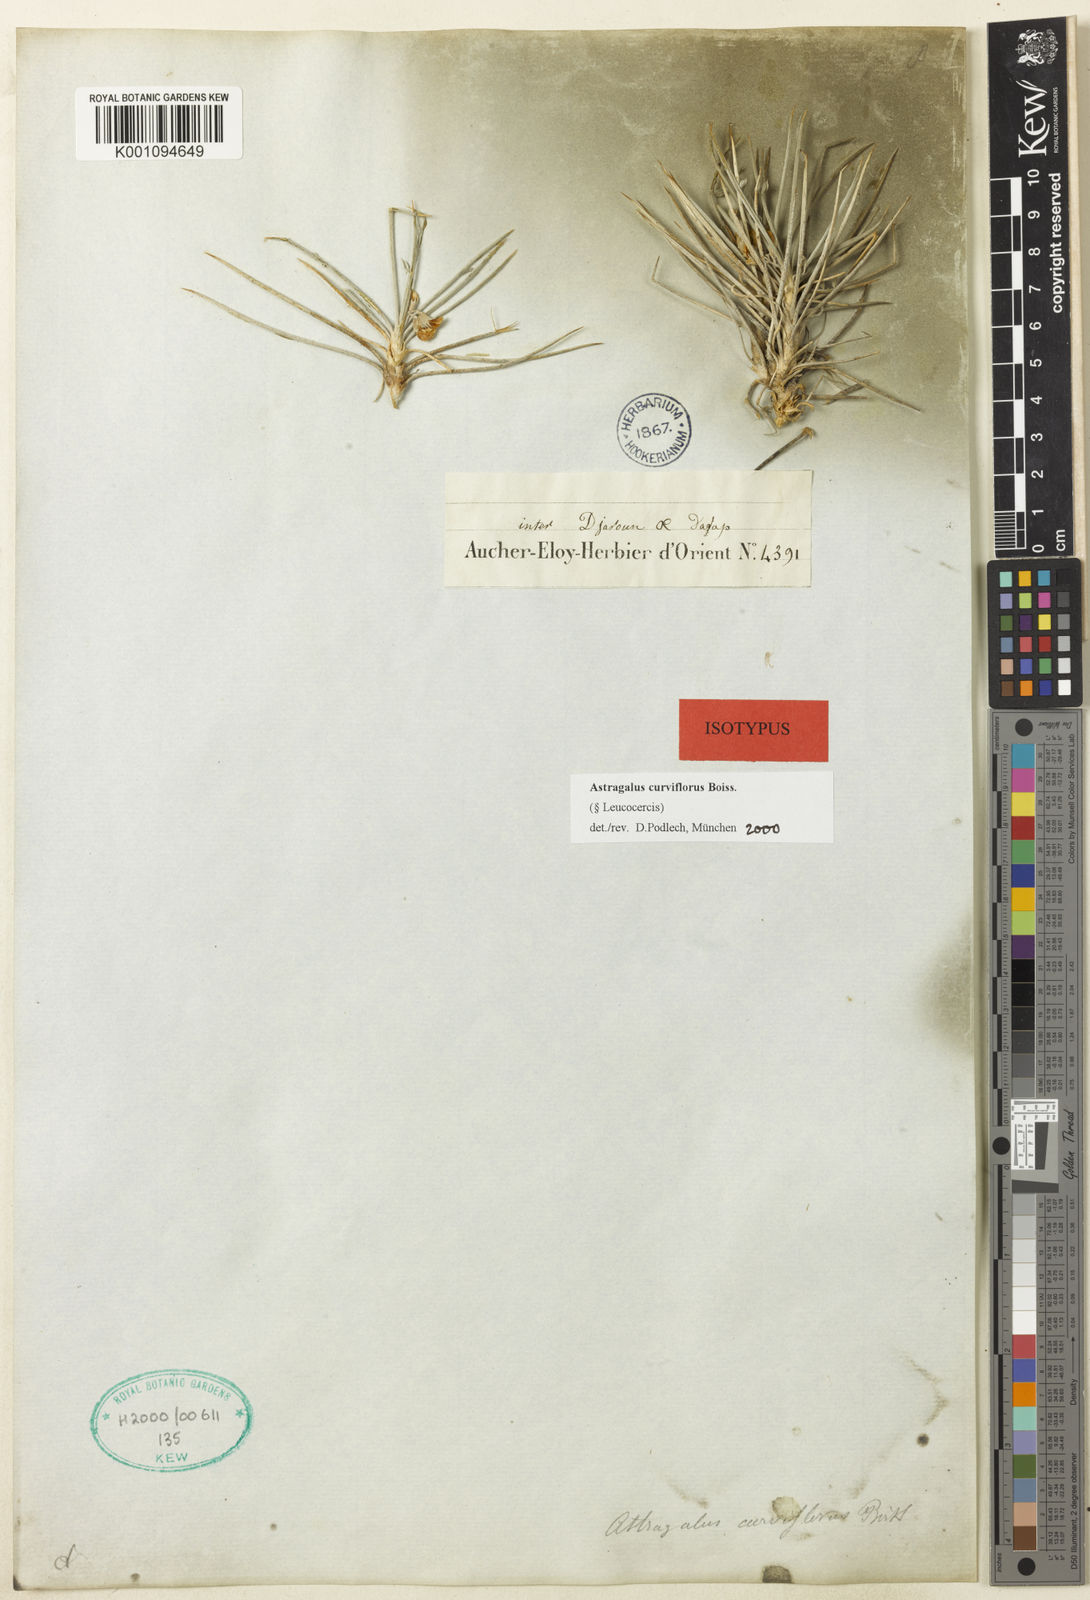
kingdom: Plantae
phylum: Tracheophyta
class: Magnoliopsida
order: Fabales
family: Fabaceae
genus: Astragalus
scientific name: Astragalus
